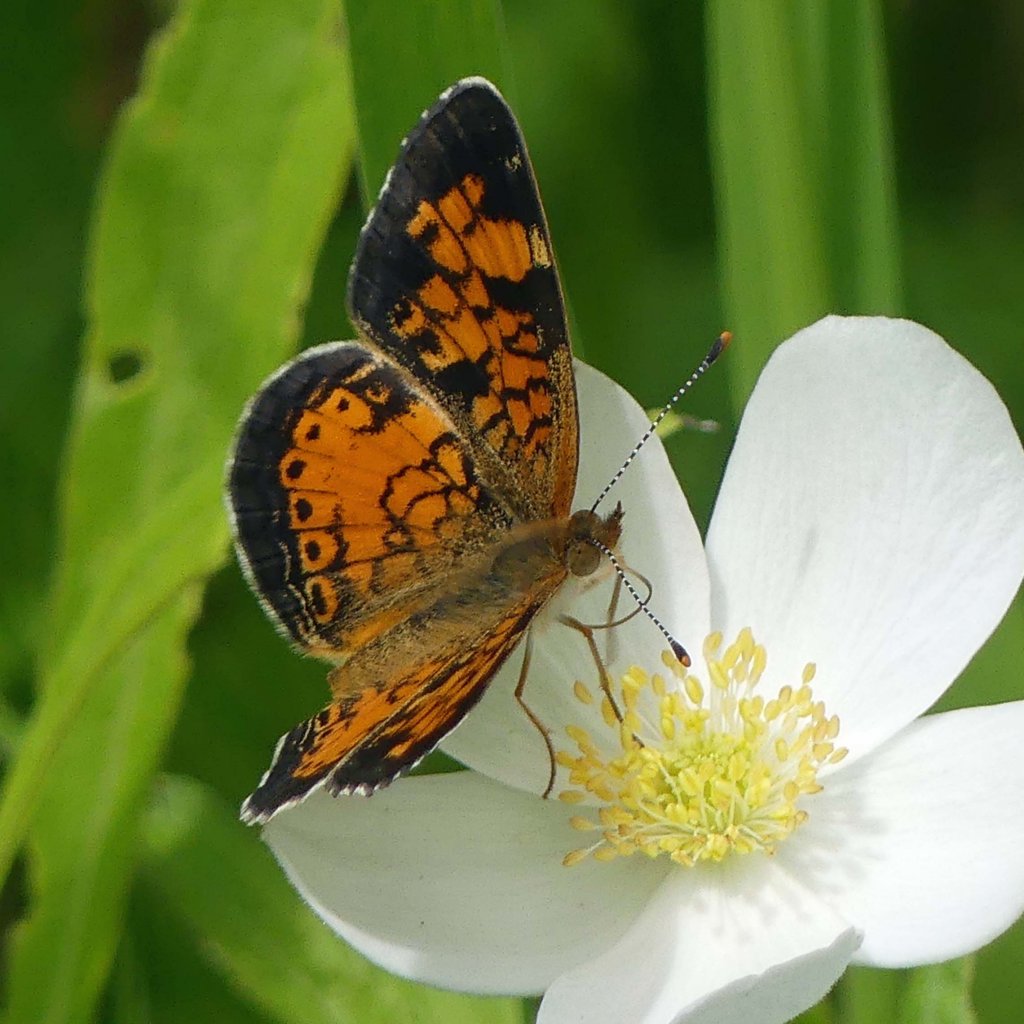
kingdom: Animalia
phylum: Arthropoda
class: Insecta
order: Lepidoptera
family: Nymphalidae
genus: Phyciodes
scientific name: Phyciodes tharos
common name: Northern Crescent
